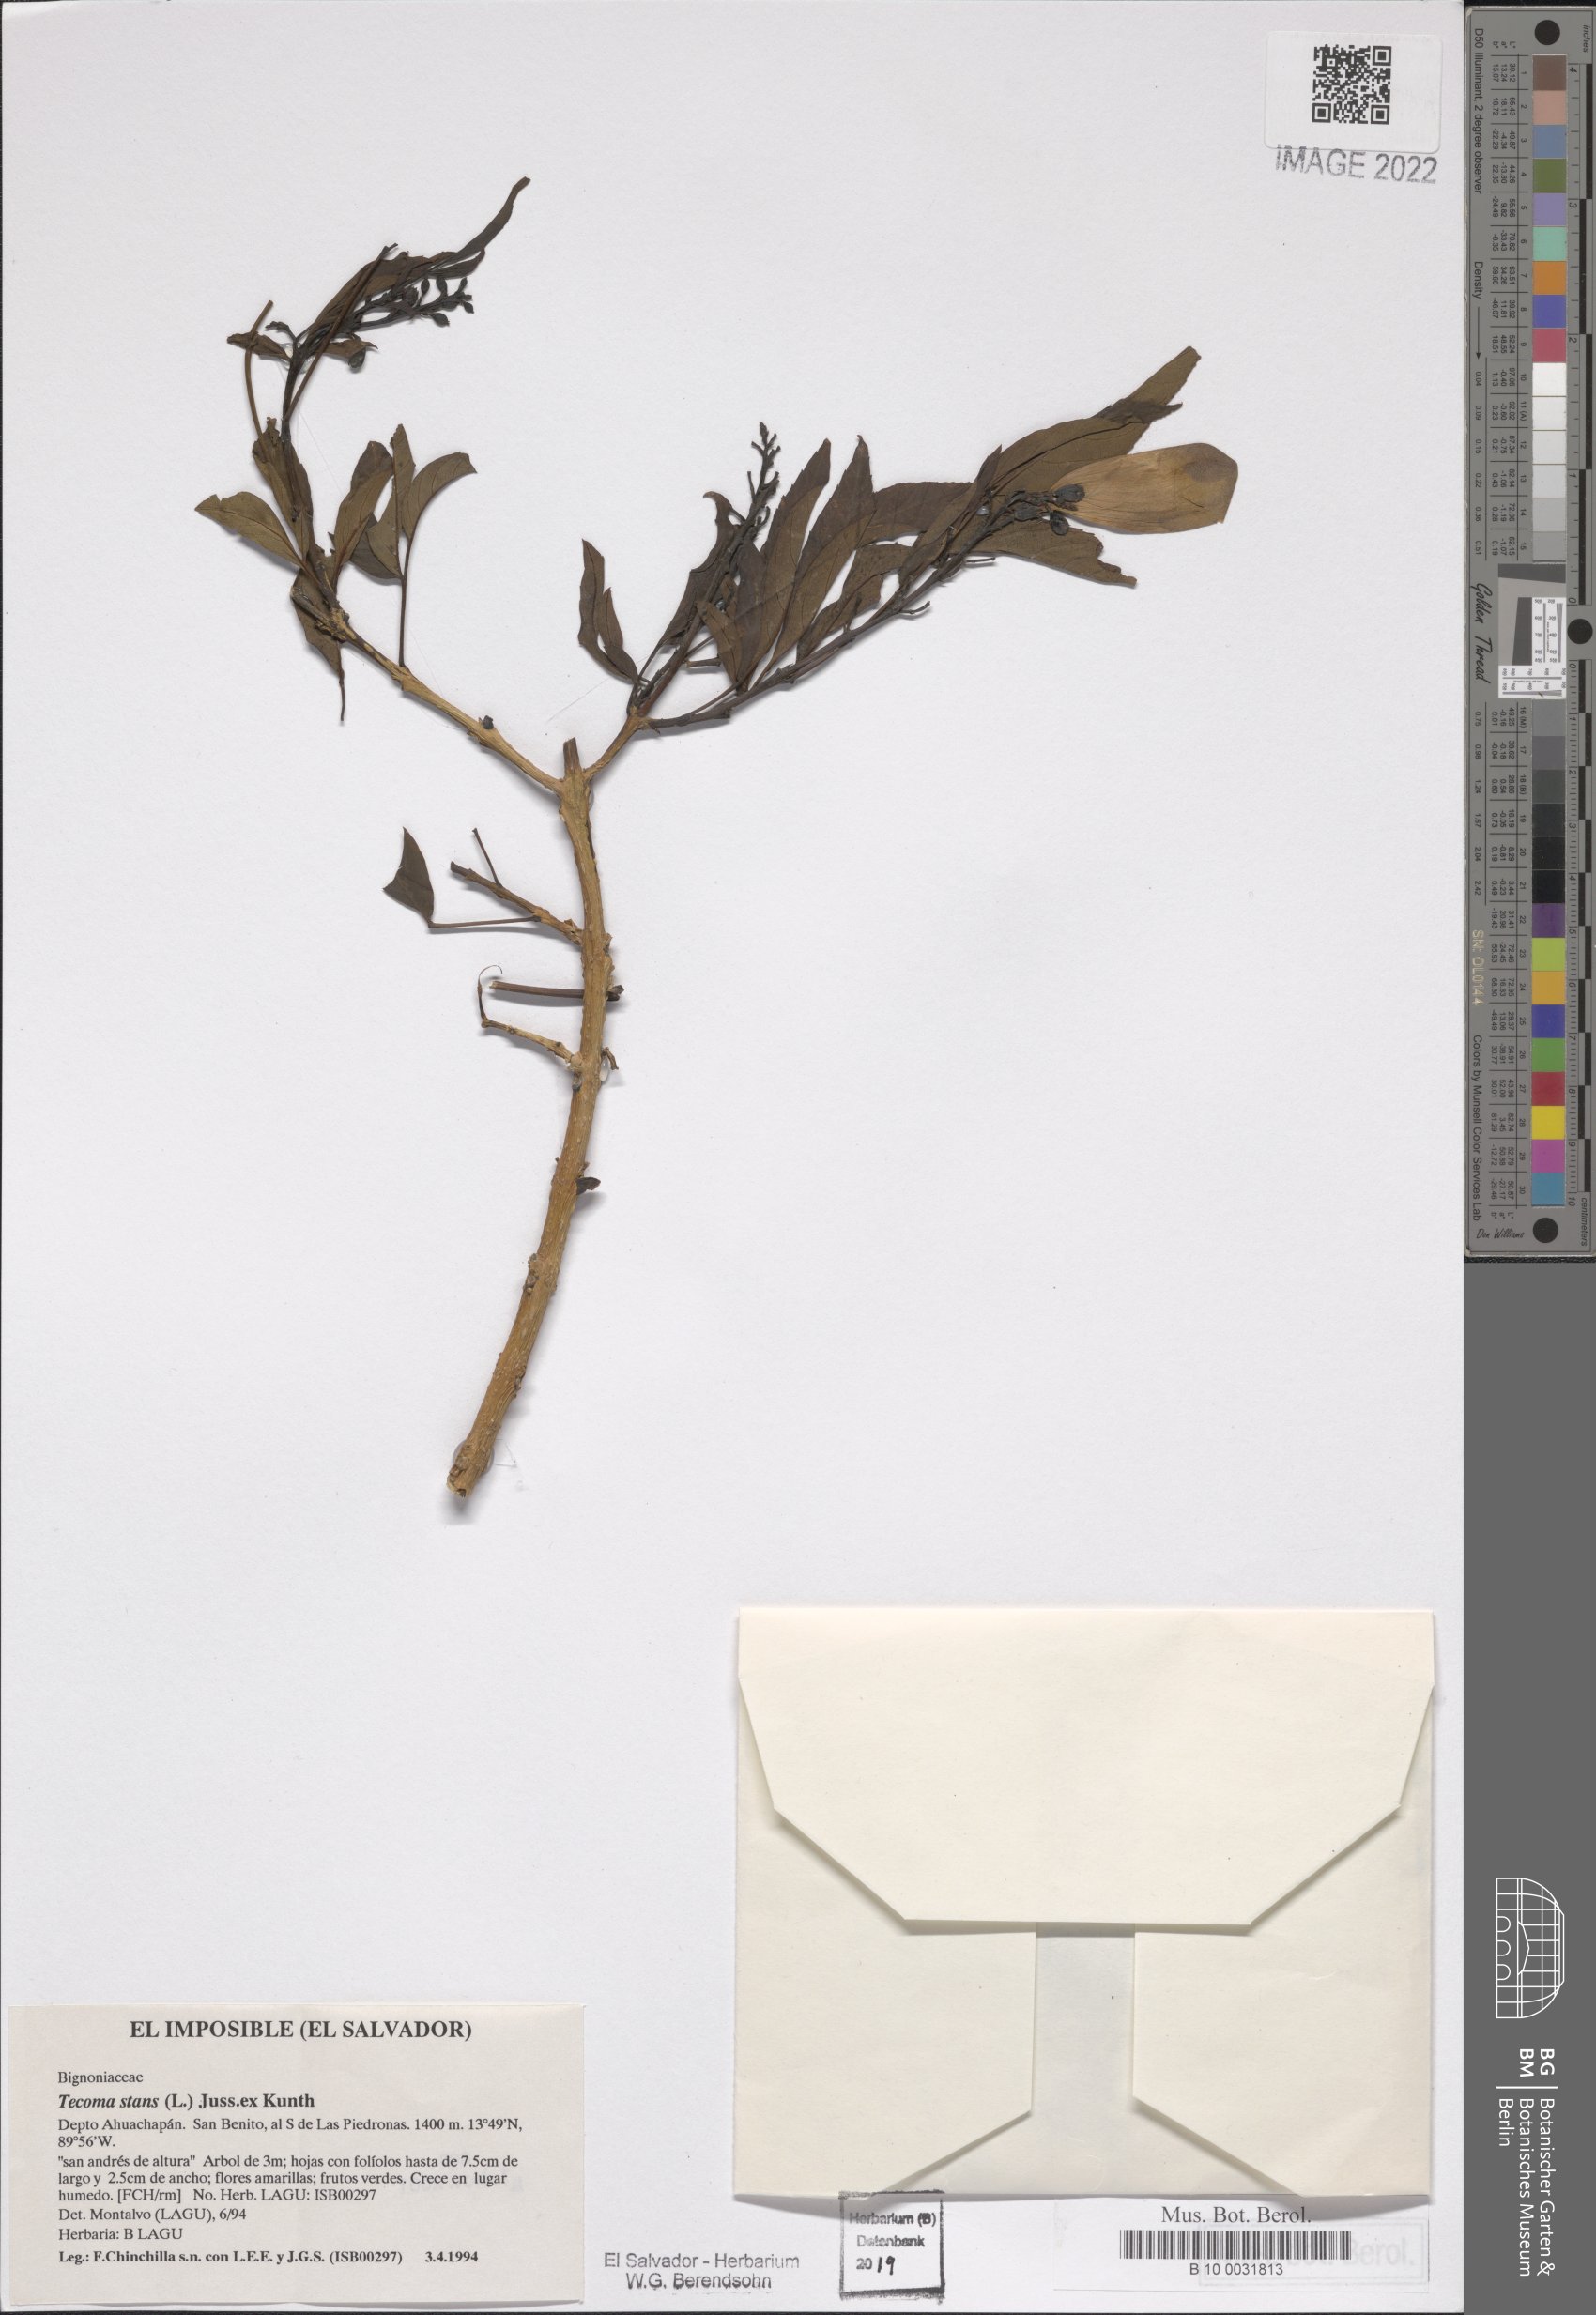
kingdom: Plantae
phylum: Tracheophyta
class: Magnoliopsida
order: Lamiales
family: Bignoniaceae
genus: Tecoma
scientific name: Tecoma stans
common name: Yellow trumpetbush
